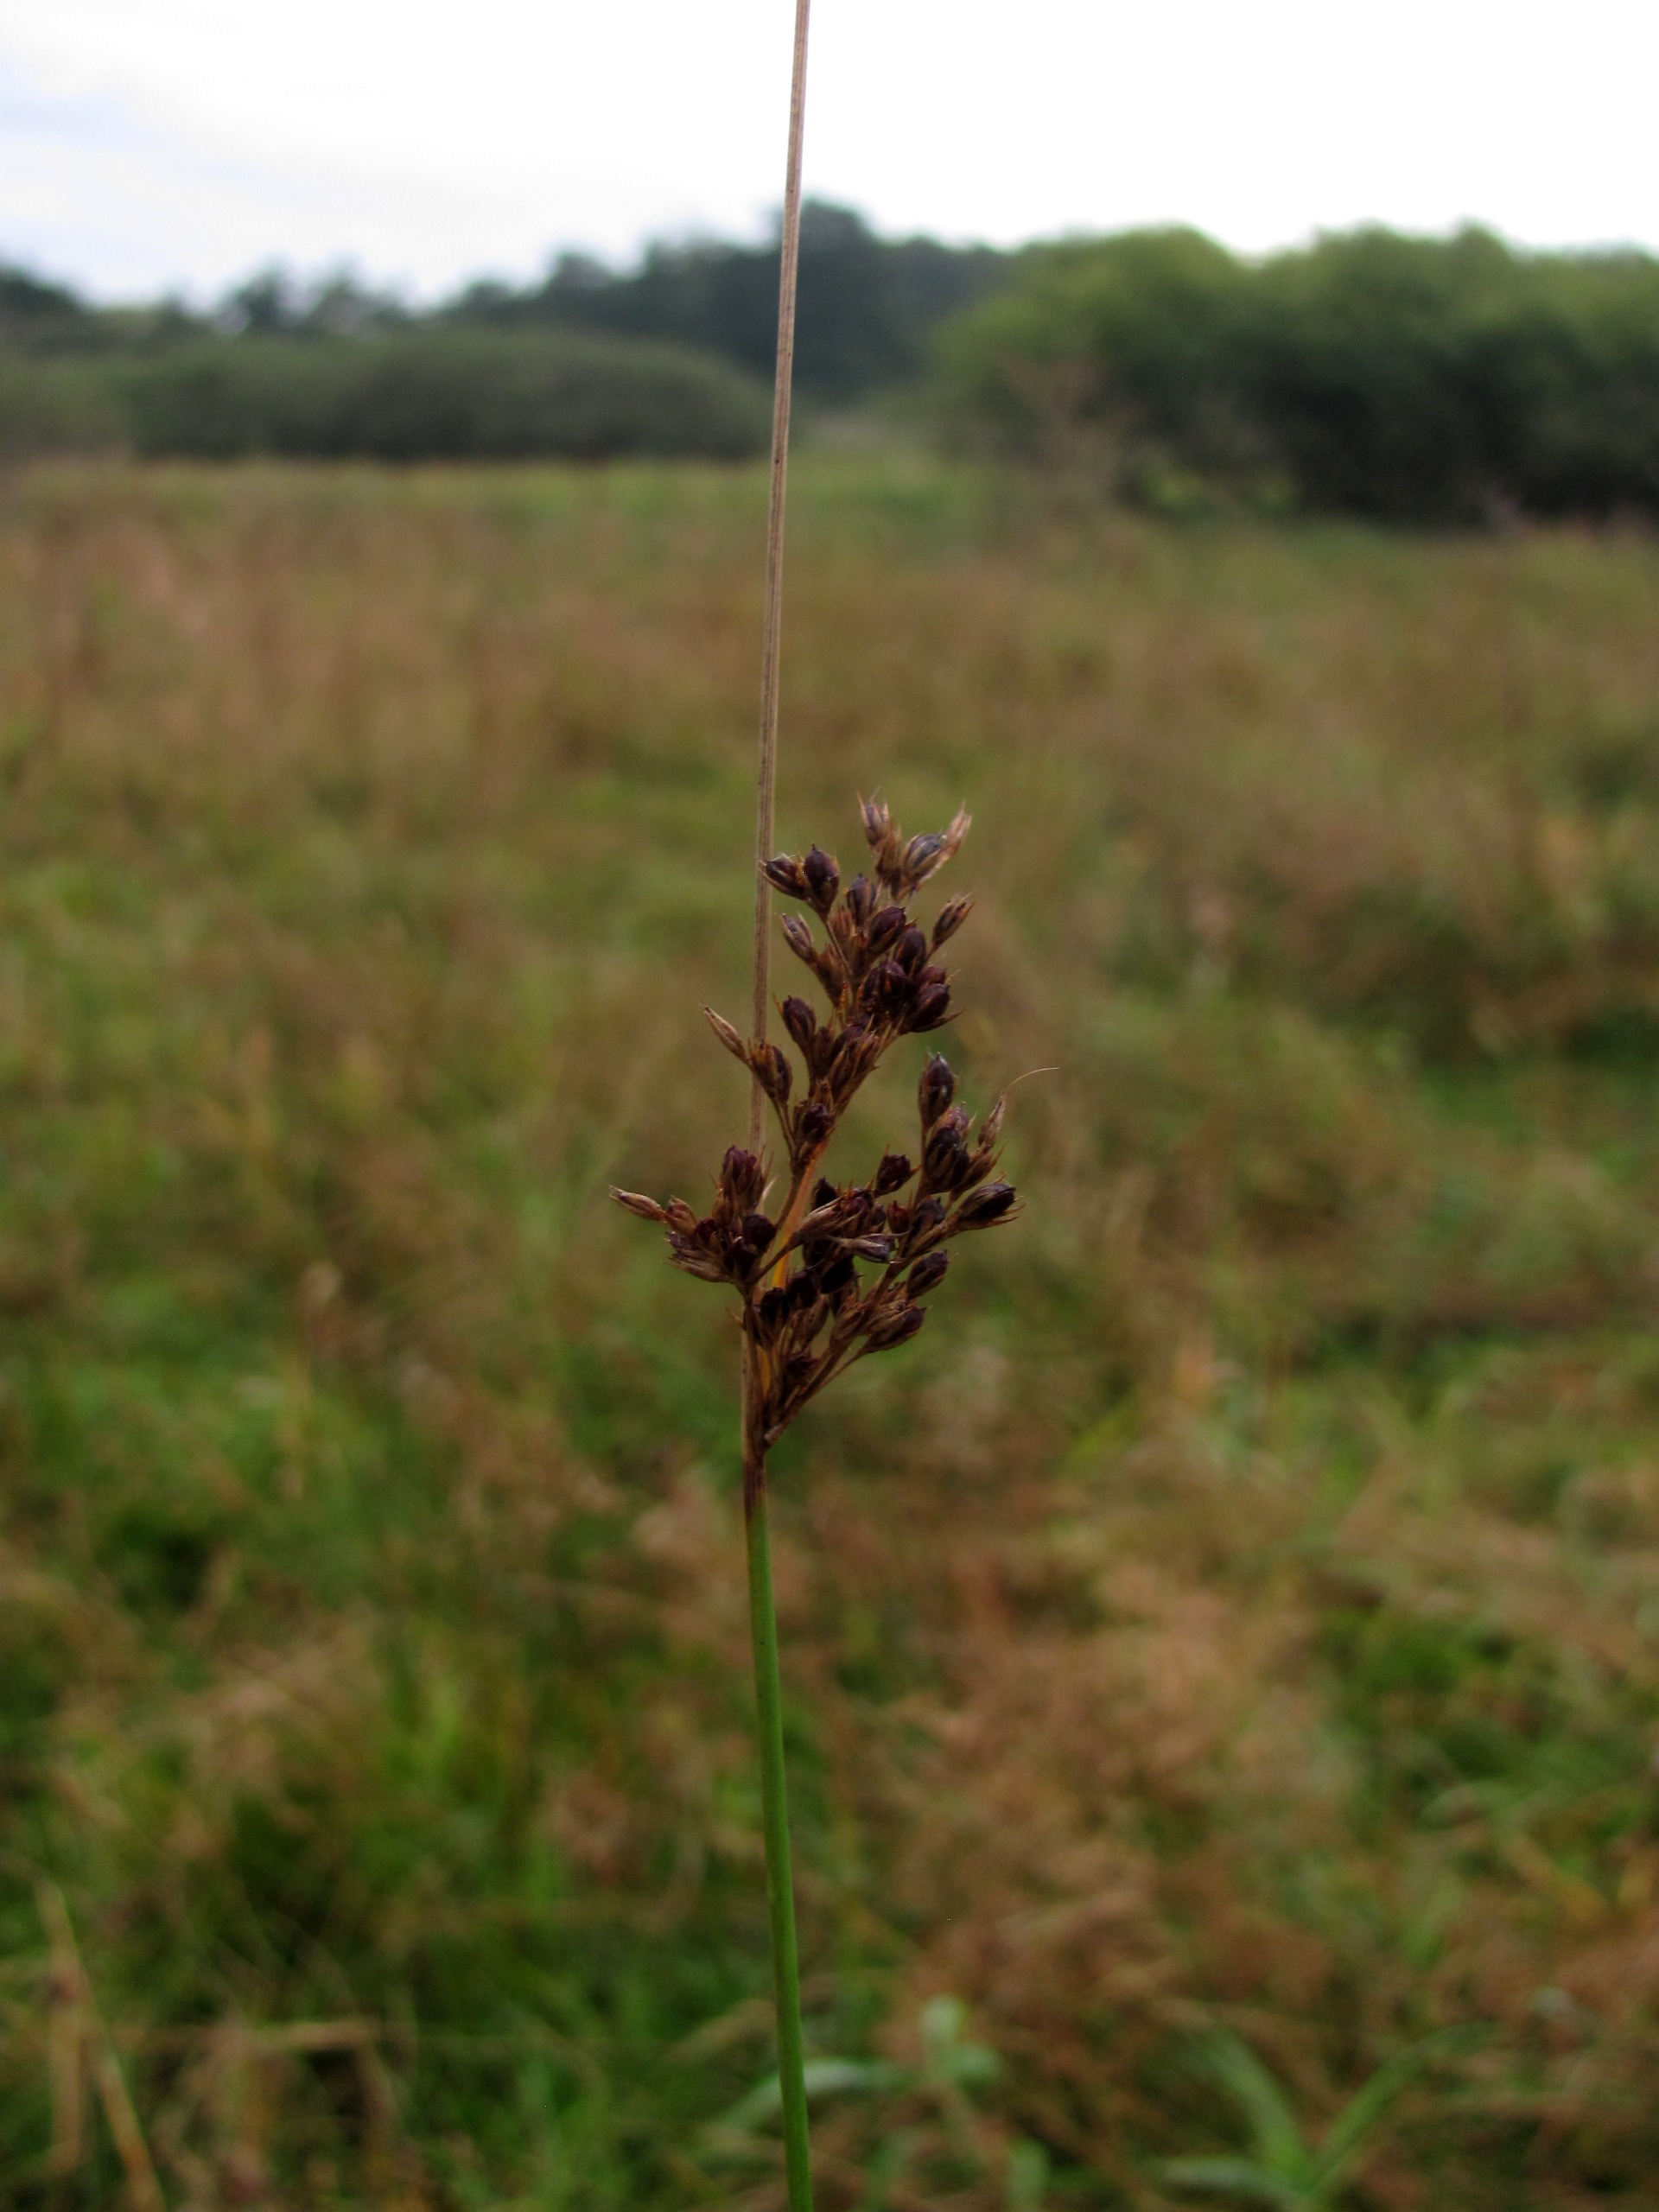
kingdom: Plantae
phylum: Tracheophyta
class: Liliopsida
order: Poales
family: Juncaceae
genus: Juncus
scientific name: Juncus inflexus
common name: Blågrå siv
